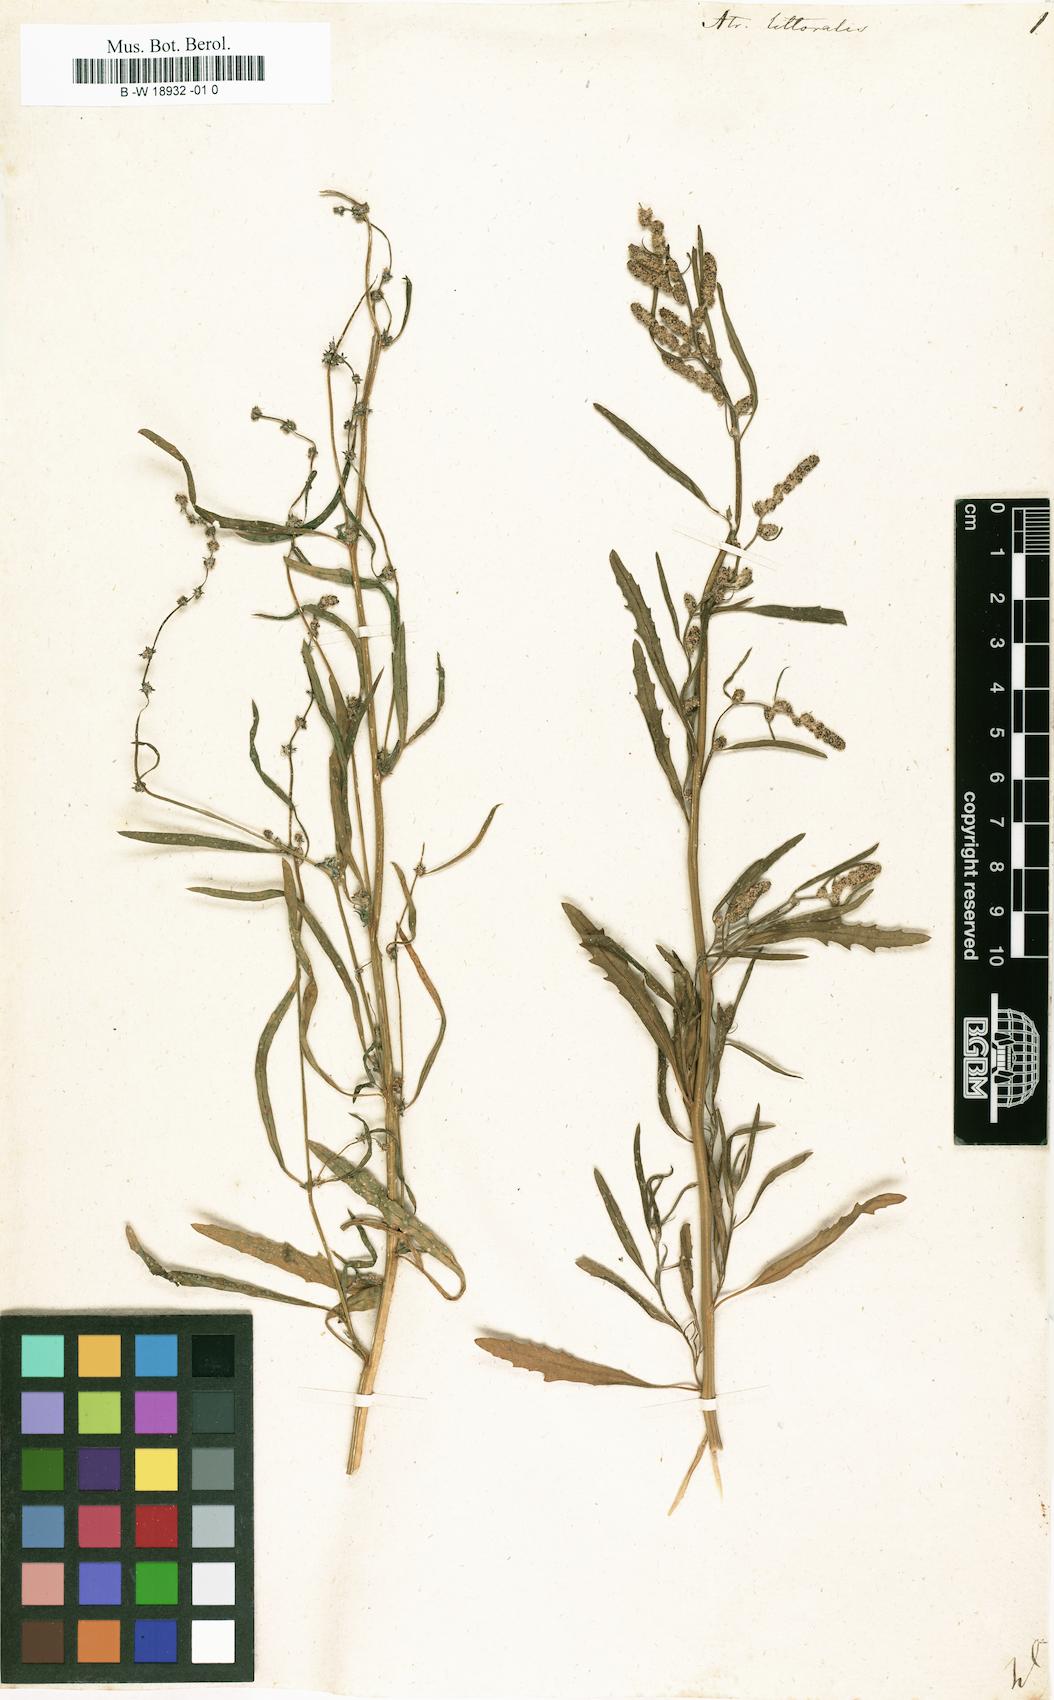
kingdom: Plantae
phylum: Tracheophyta
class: Magnoliopsida
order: Caryophyllales
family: Amaranthaceae
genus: Atriplex
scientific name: Atriplex littoralis
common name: Grass-leaved orache
